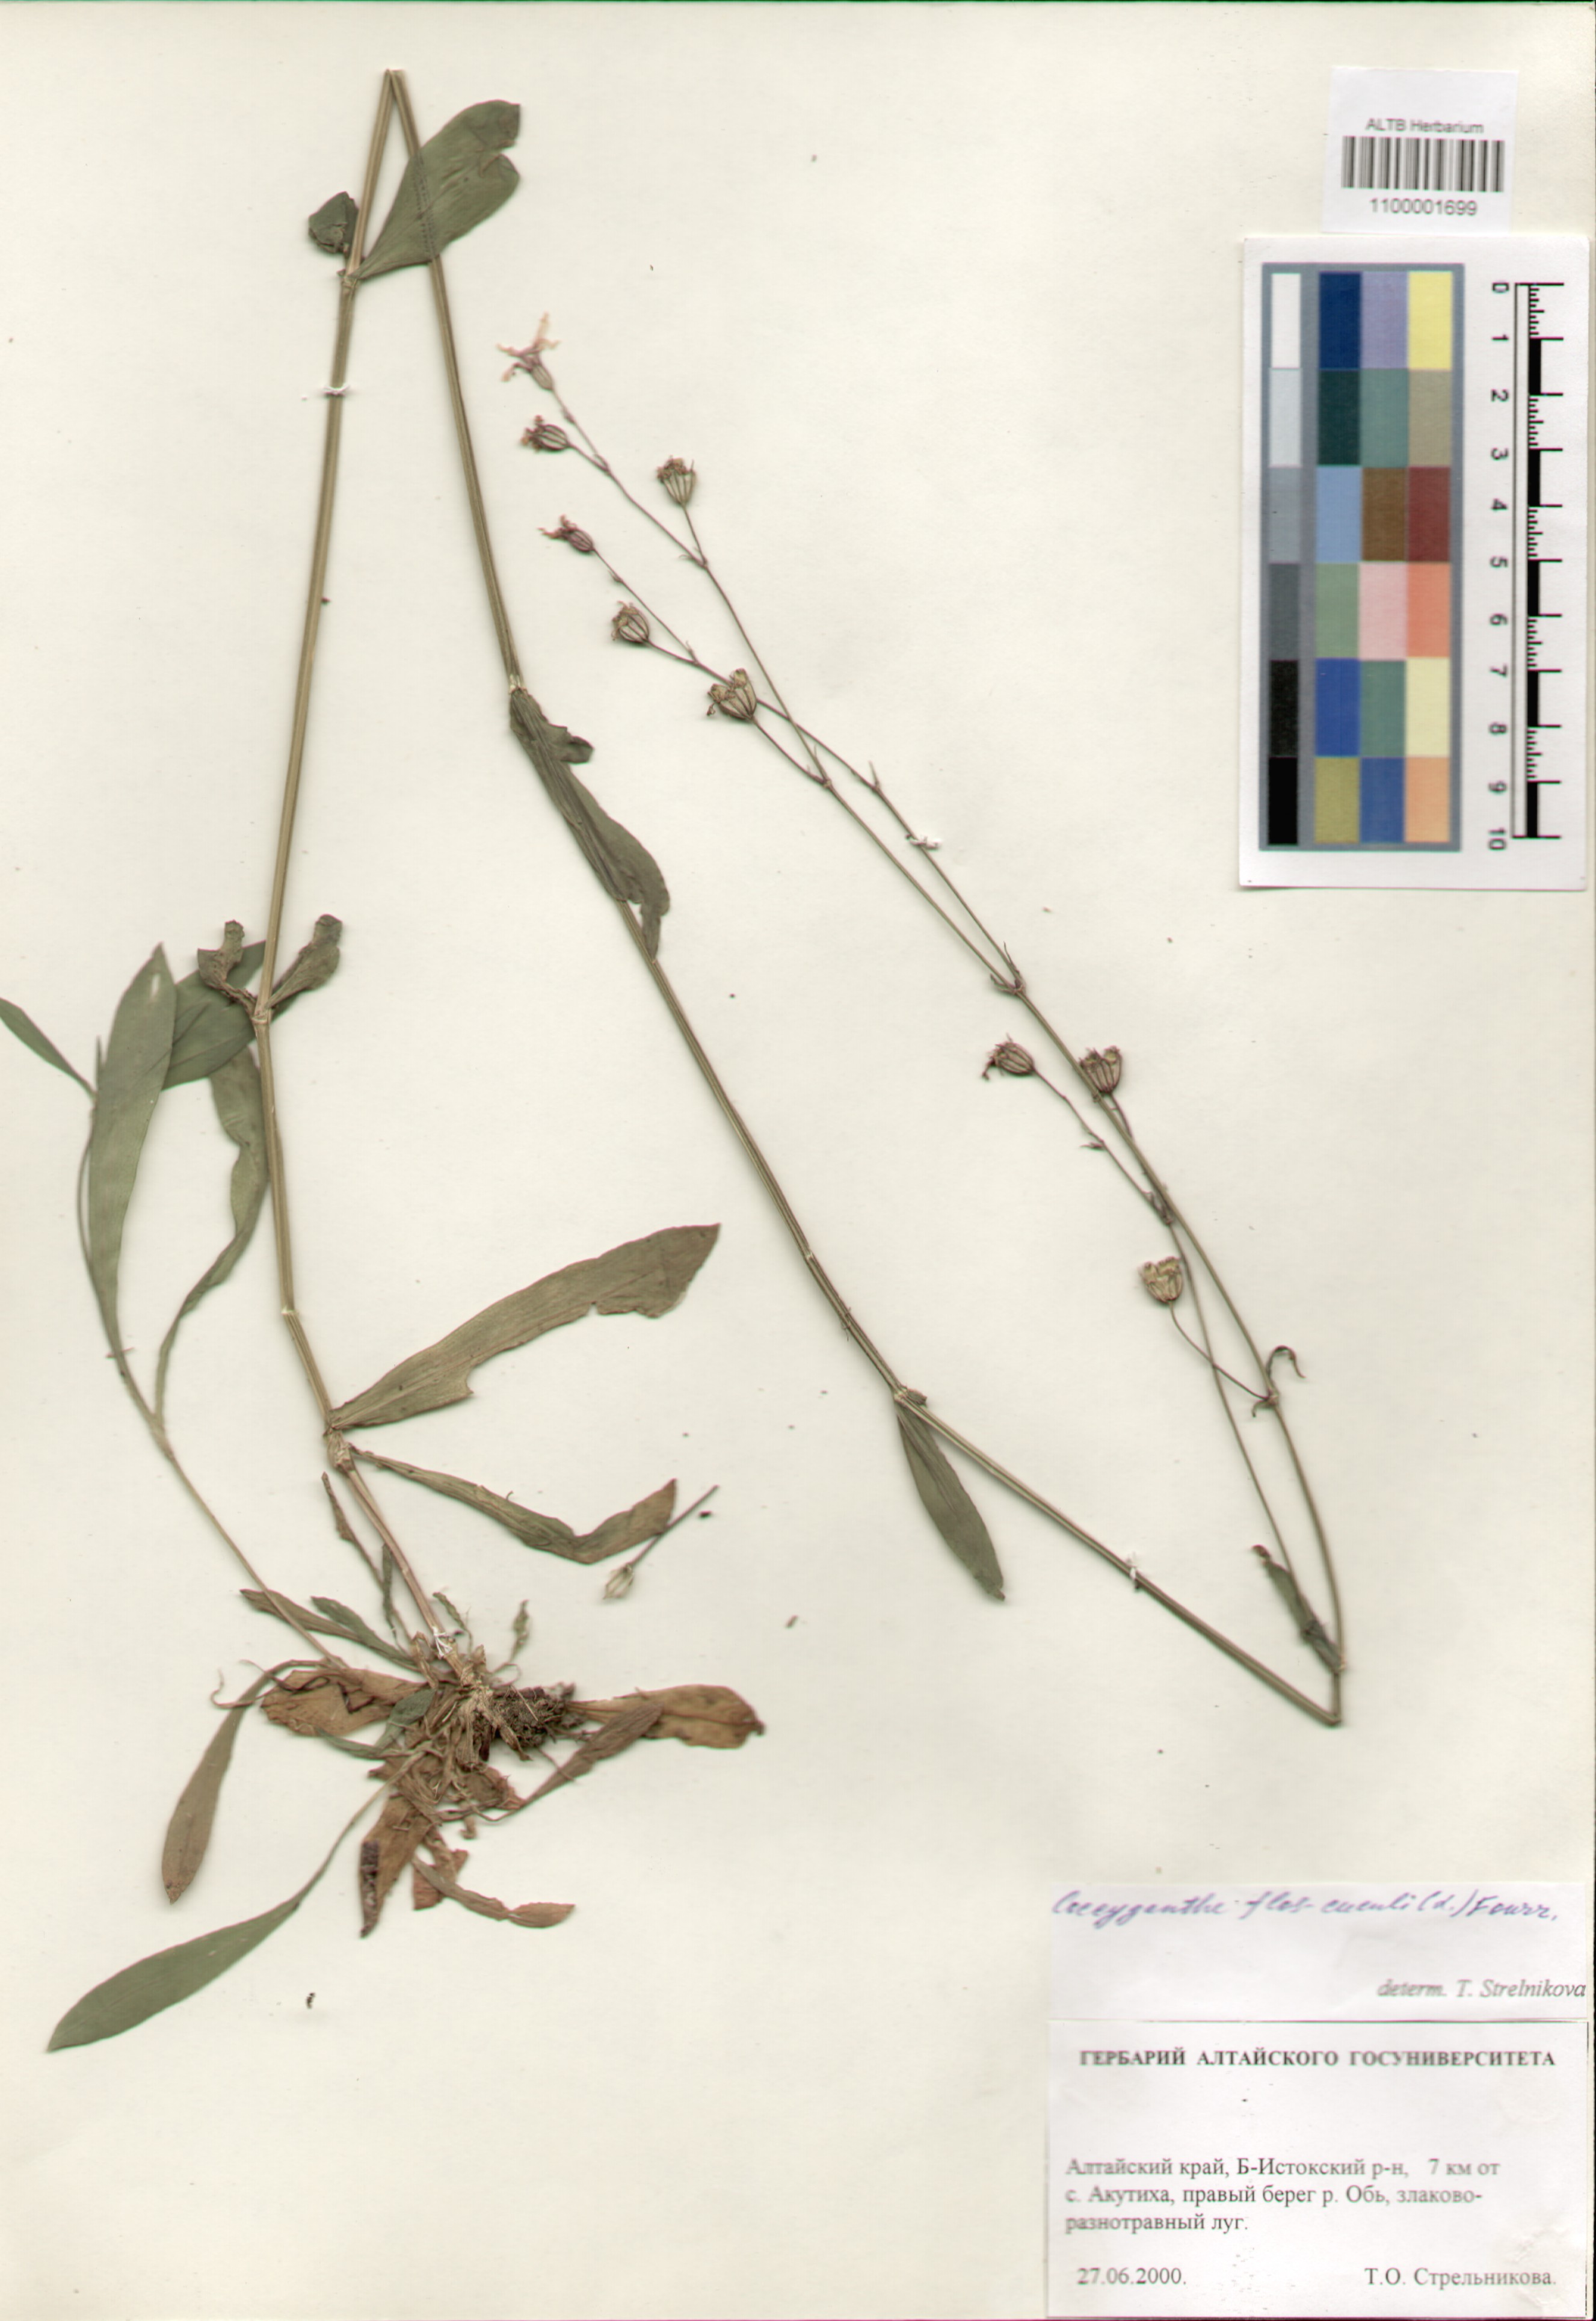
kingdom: Plantae
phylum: Tracheophyta
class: Magnoliopsida
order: Caryophyllales
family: Caryophyllaceae
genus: Silene
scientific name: Silene flos-cuculi
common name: Ragged-robin
